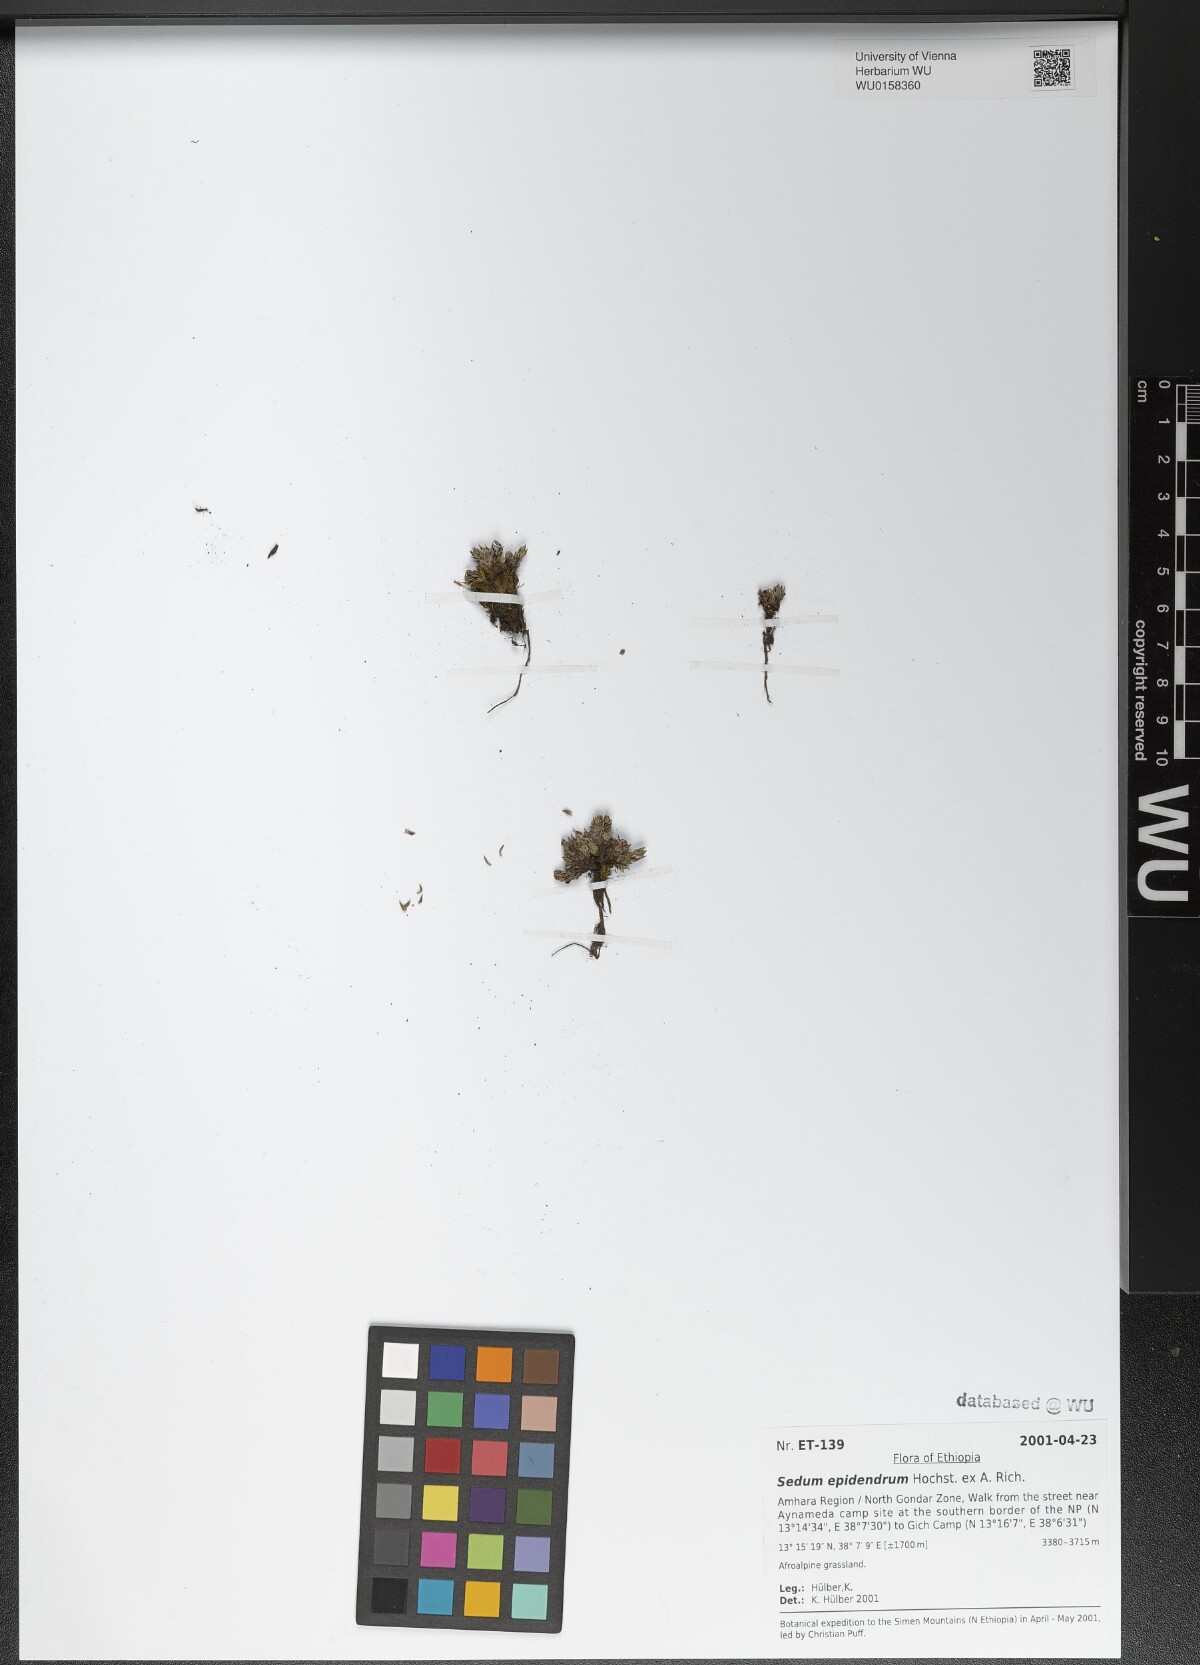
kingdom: Plantae
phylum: Tracheophyta
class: Magnoliopsida
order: Saxifragales
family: Crassulaceae
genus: Sedum
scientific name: Sedum epidendrum
